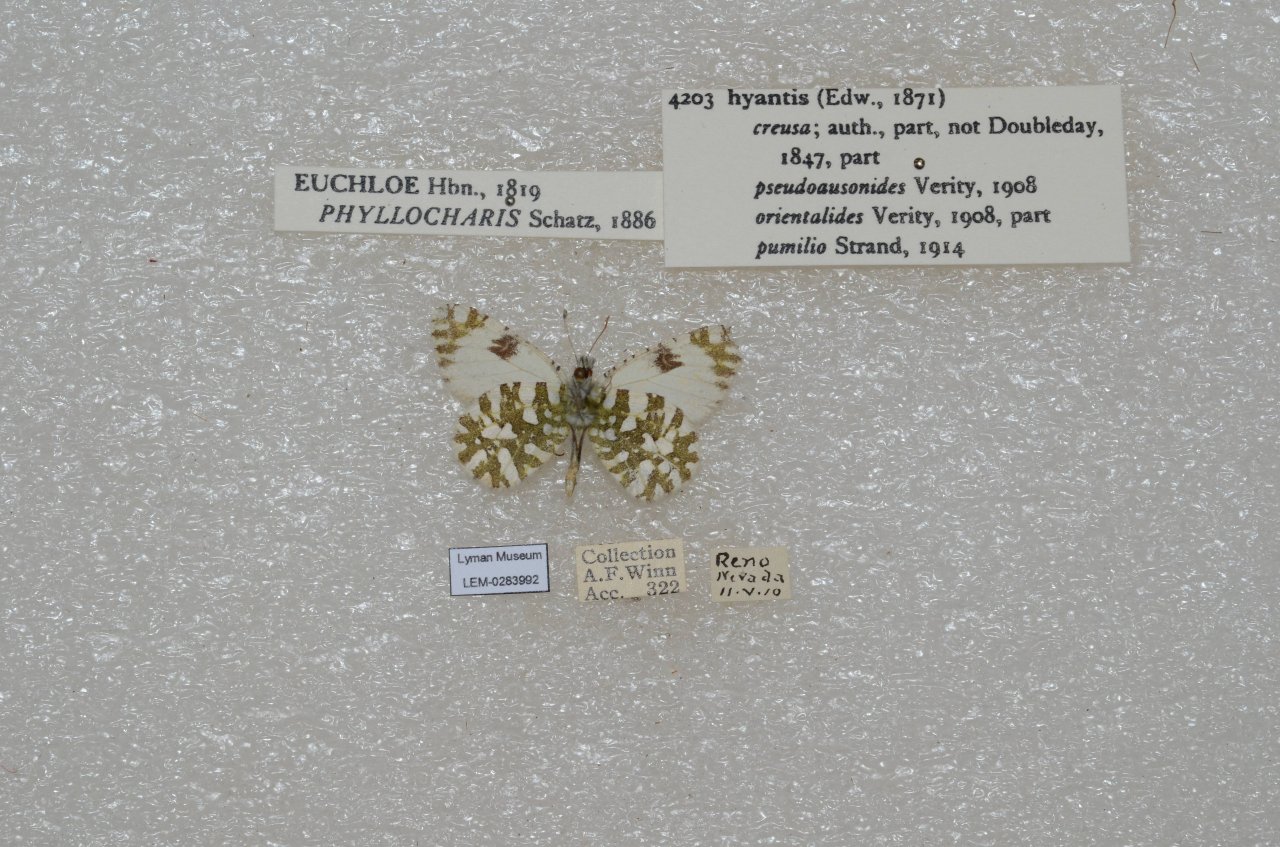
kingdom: Animalia
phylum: Arthropoda
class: Insecta
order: Lepidoptera
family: Pieridae
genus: Euchloe
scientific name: Euchloe hyantis
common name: California Marble
